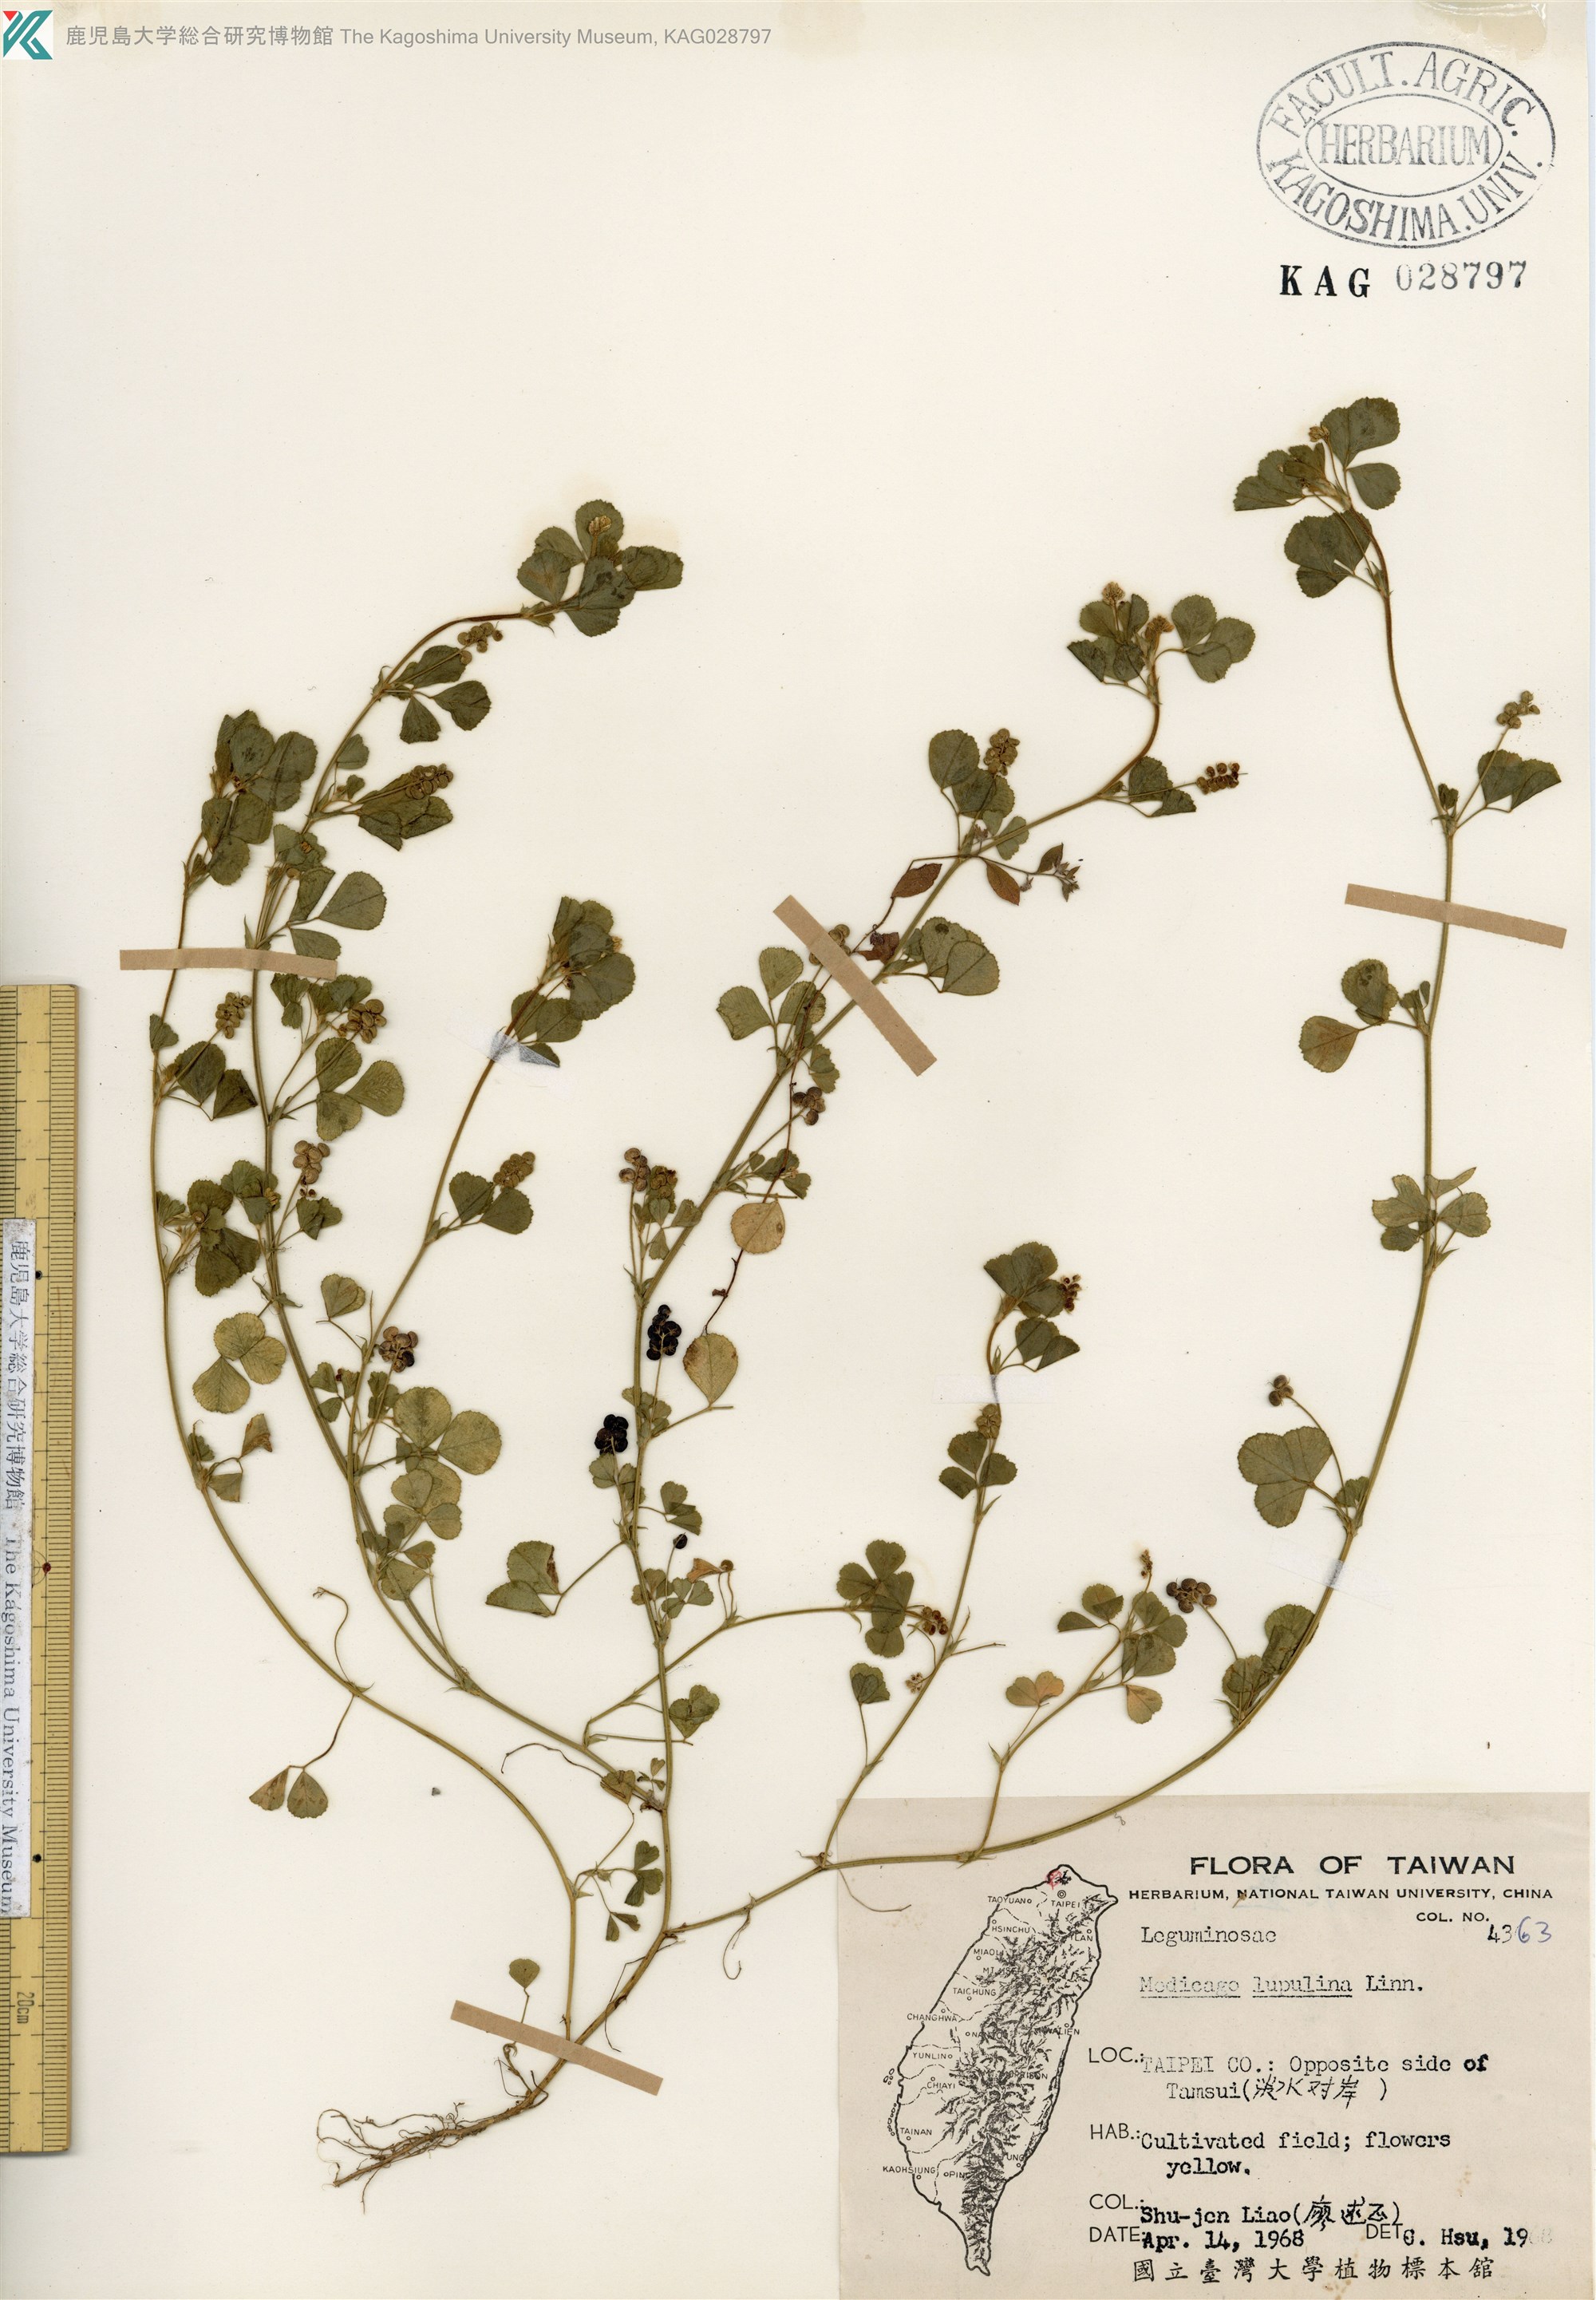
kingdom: Plantae
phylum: Tracheophyta
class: Magnoliopsida
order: Fabales
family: Fabaceae
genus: Medicago
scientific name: Medicago lupulina
